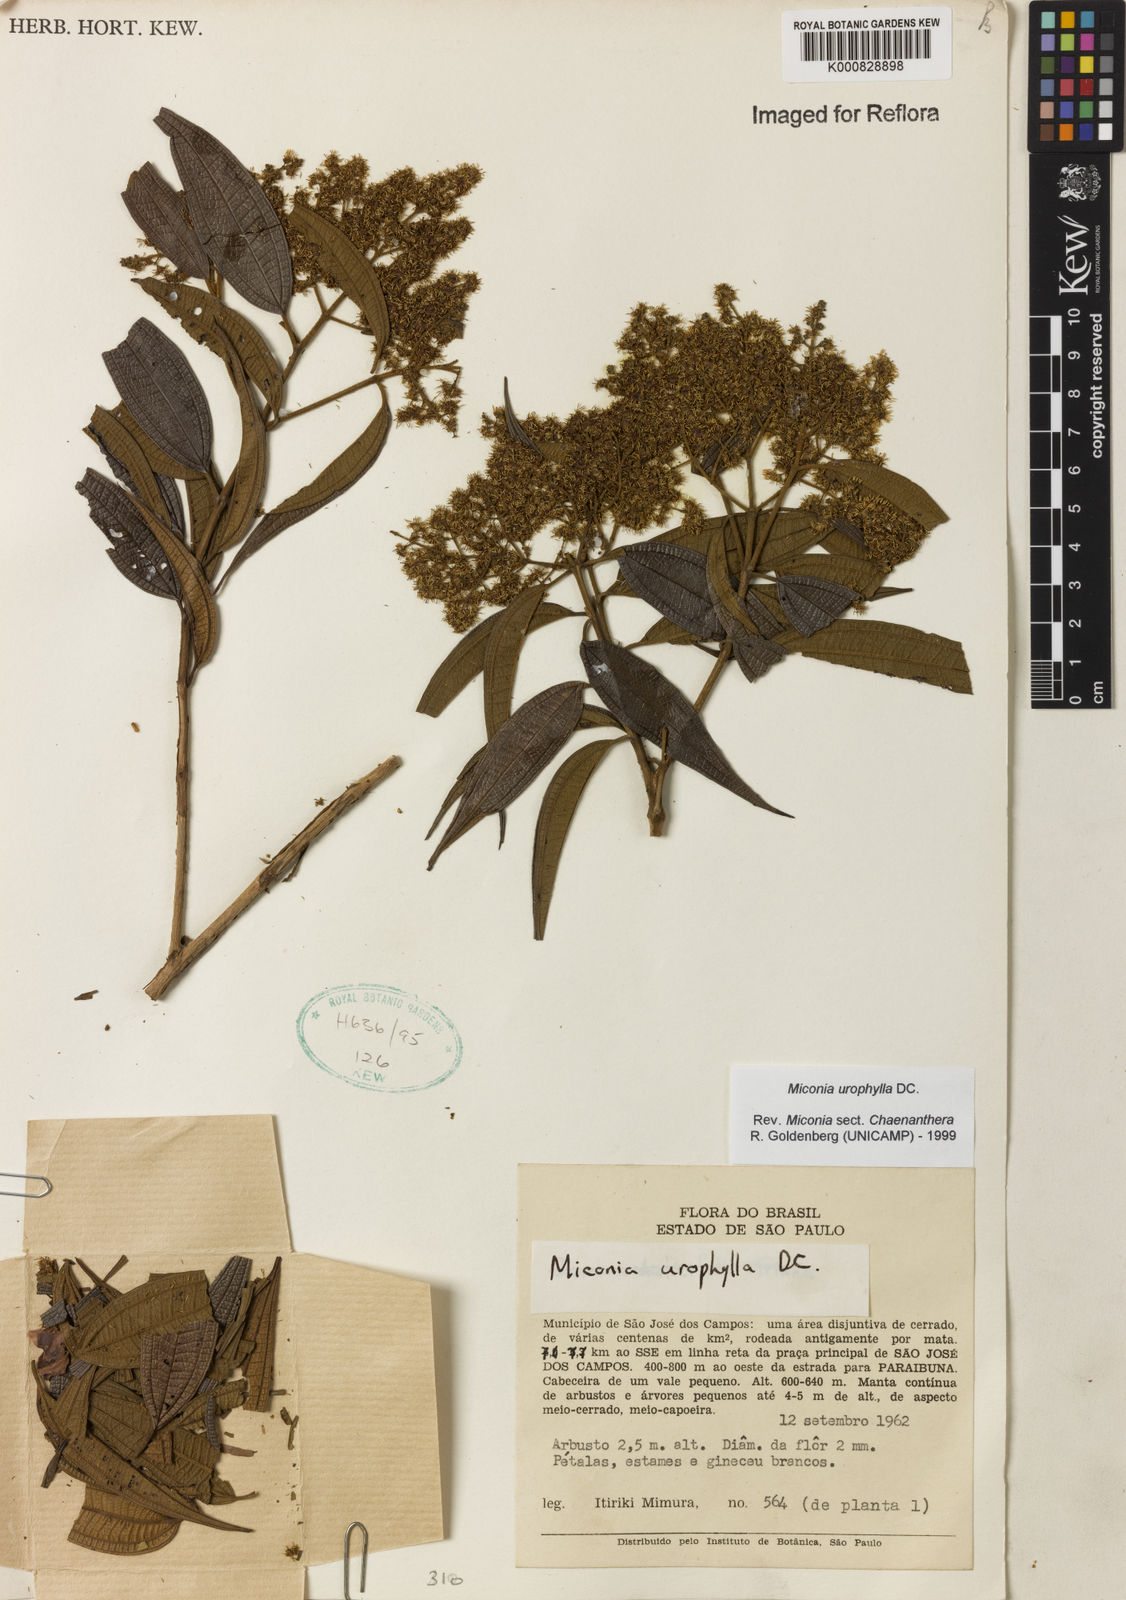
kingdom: Plantae
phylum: Tracheophyta
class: Magnoliopsida
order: Myrtales
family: Melastomataceae
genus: Miconia
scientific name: Miconia urophylla
